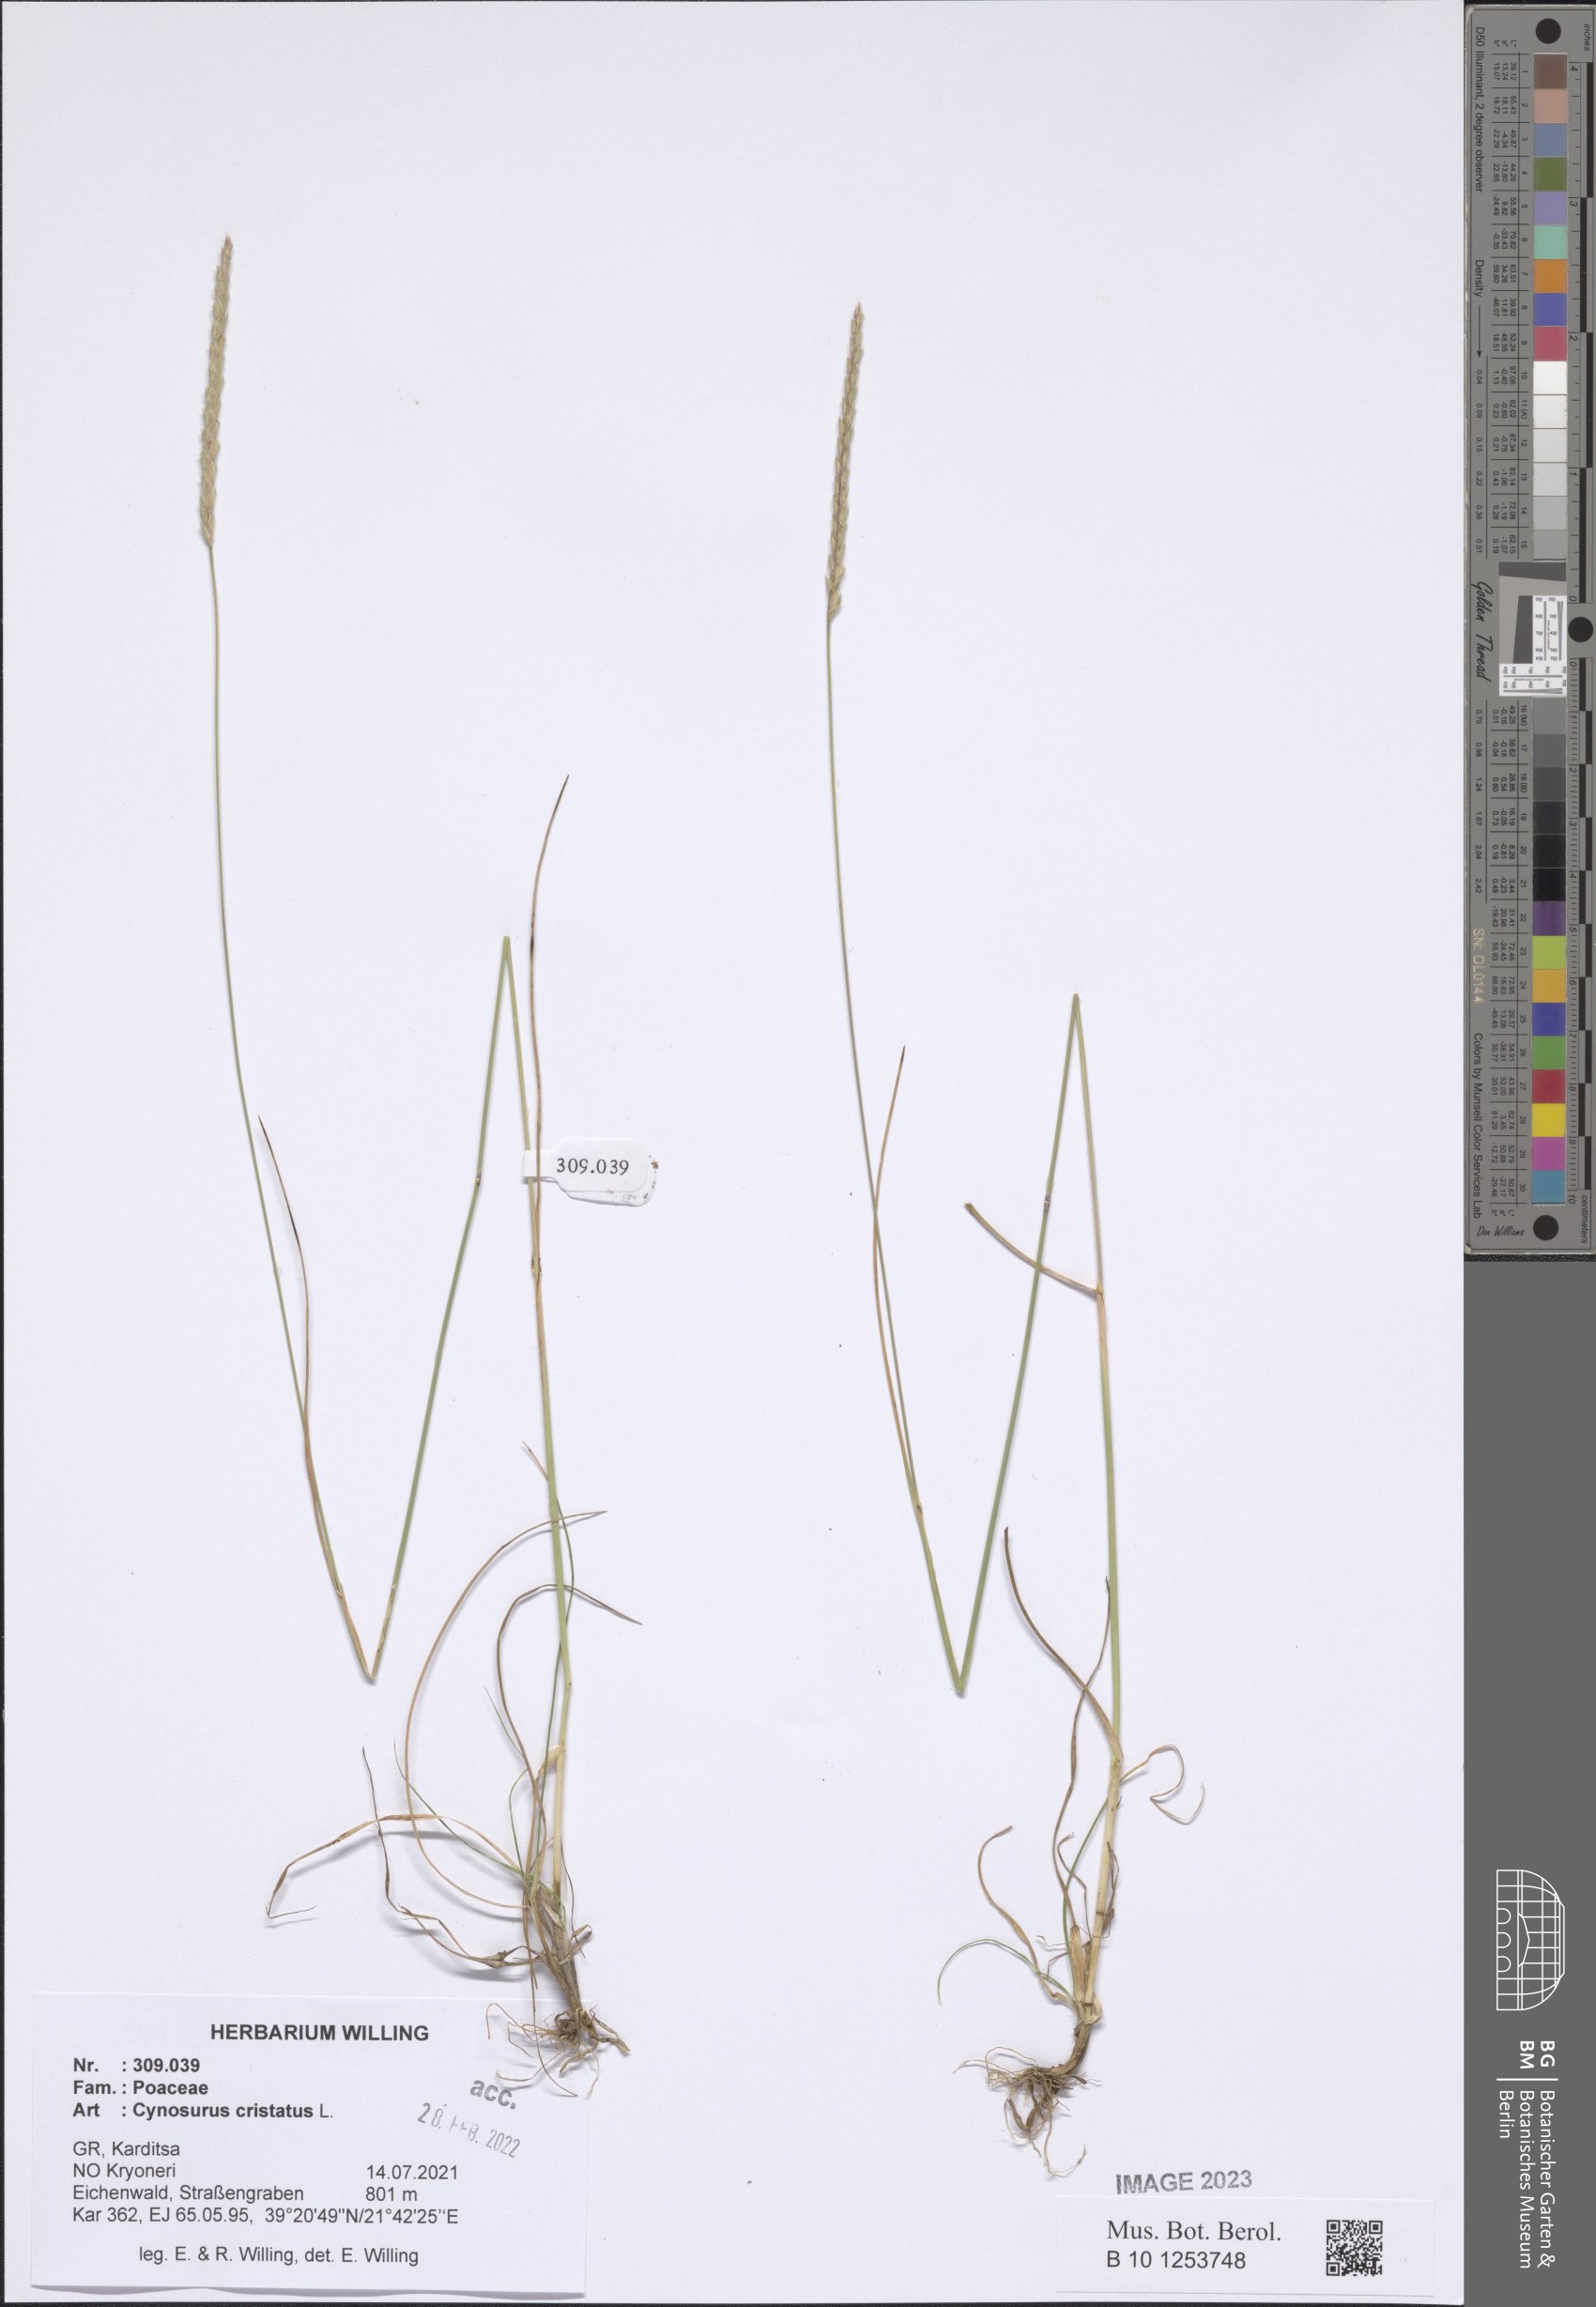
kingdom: Plantae
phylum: Tracheophyta
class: Liliopsida
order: Poales
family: Poaceae
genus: Cynosurus
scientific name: Cynosurus cristatus
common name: Crested dog's-tail
